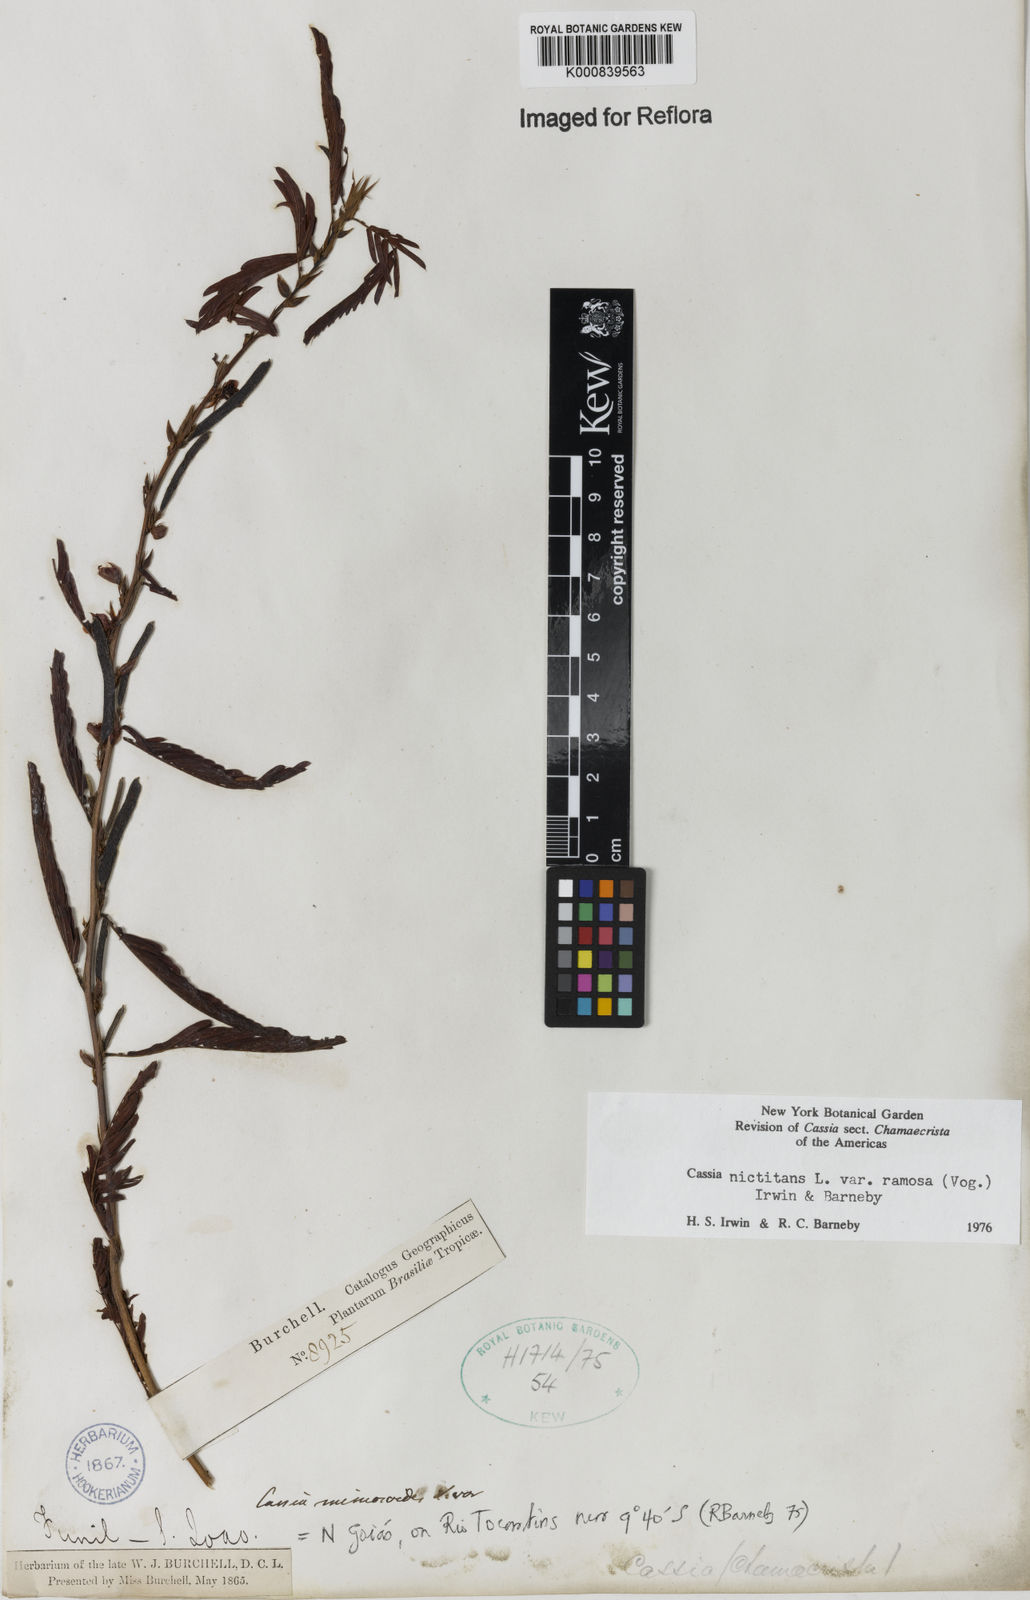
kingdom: Plantae
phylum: Tracheophyta
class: Magnoliopsida
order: Fabales
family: Fabaceae
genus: Chamaecrista
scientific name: Chamaecrista nictitans
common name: Sensitive cassia
